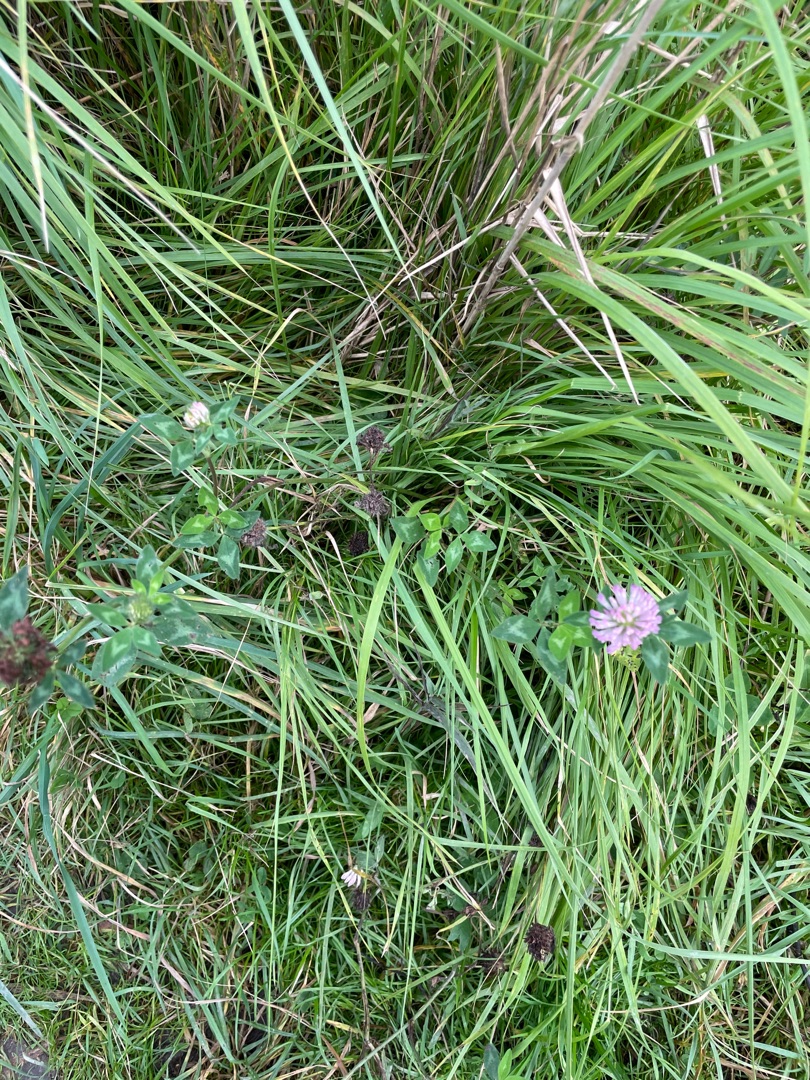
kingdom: Plantae
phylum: Tracheophyta
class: Magnoliopsida
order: Fabales
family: Fabaceae
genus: Trifolium
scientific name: Trifolium pratense
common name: Rød-kløver
